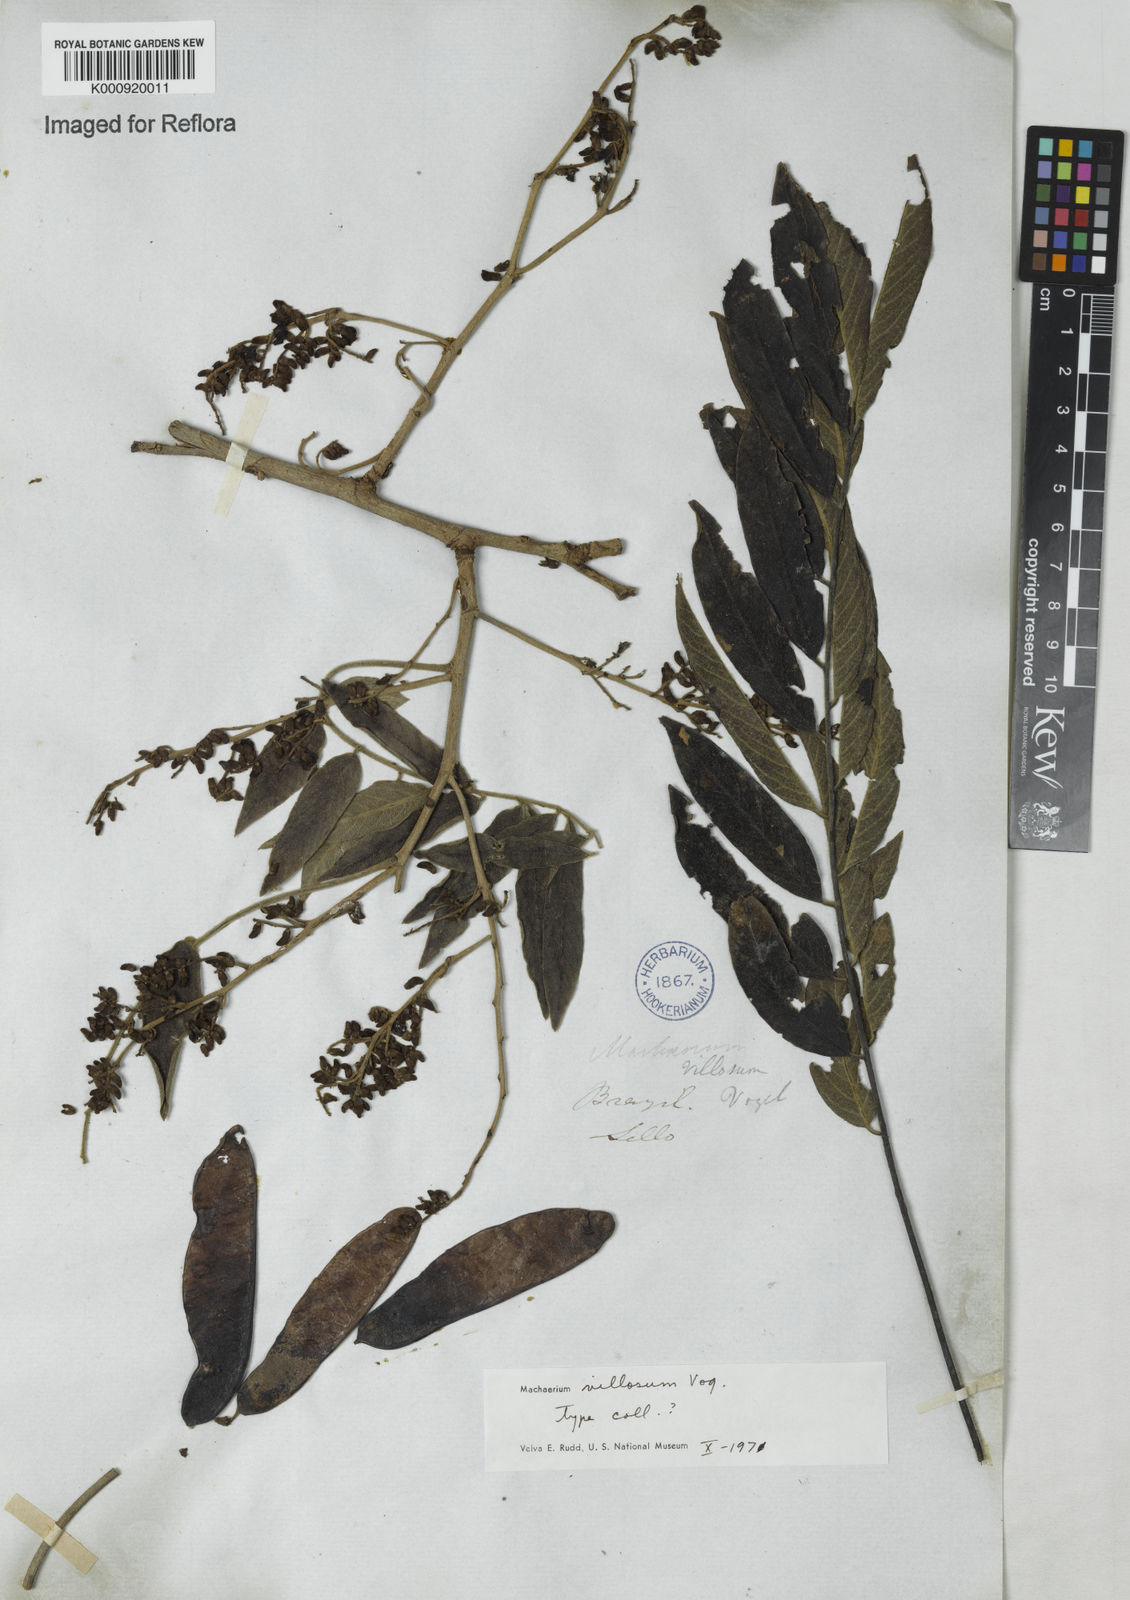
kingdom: Plantae
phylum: Tracheophyta
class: Magnoliopsida
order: Fabales
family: Fabaceae
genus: Machaerium
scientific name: Machaerium villosum
